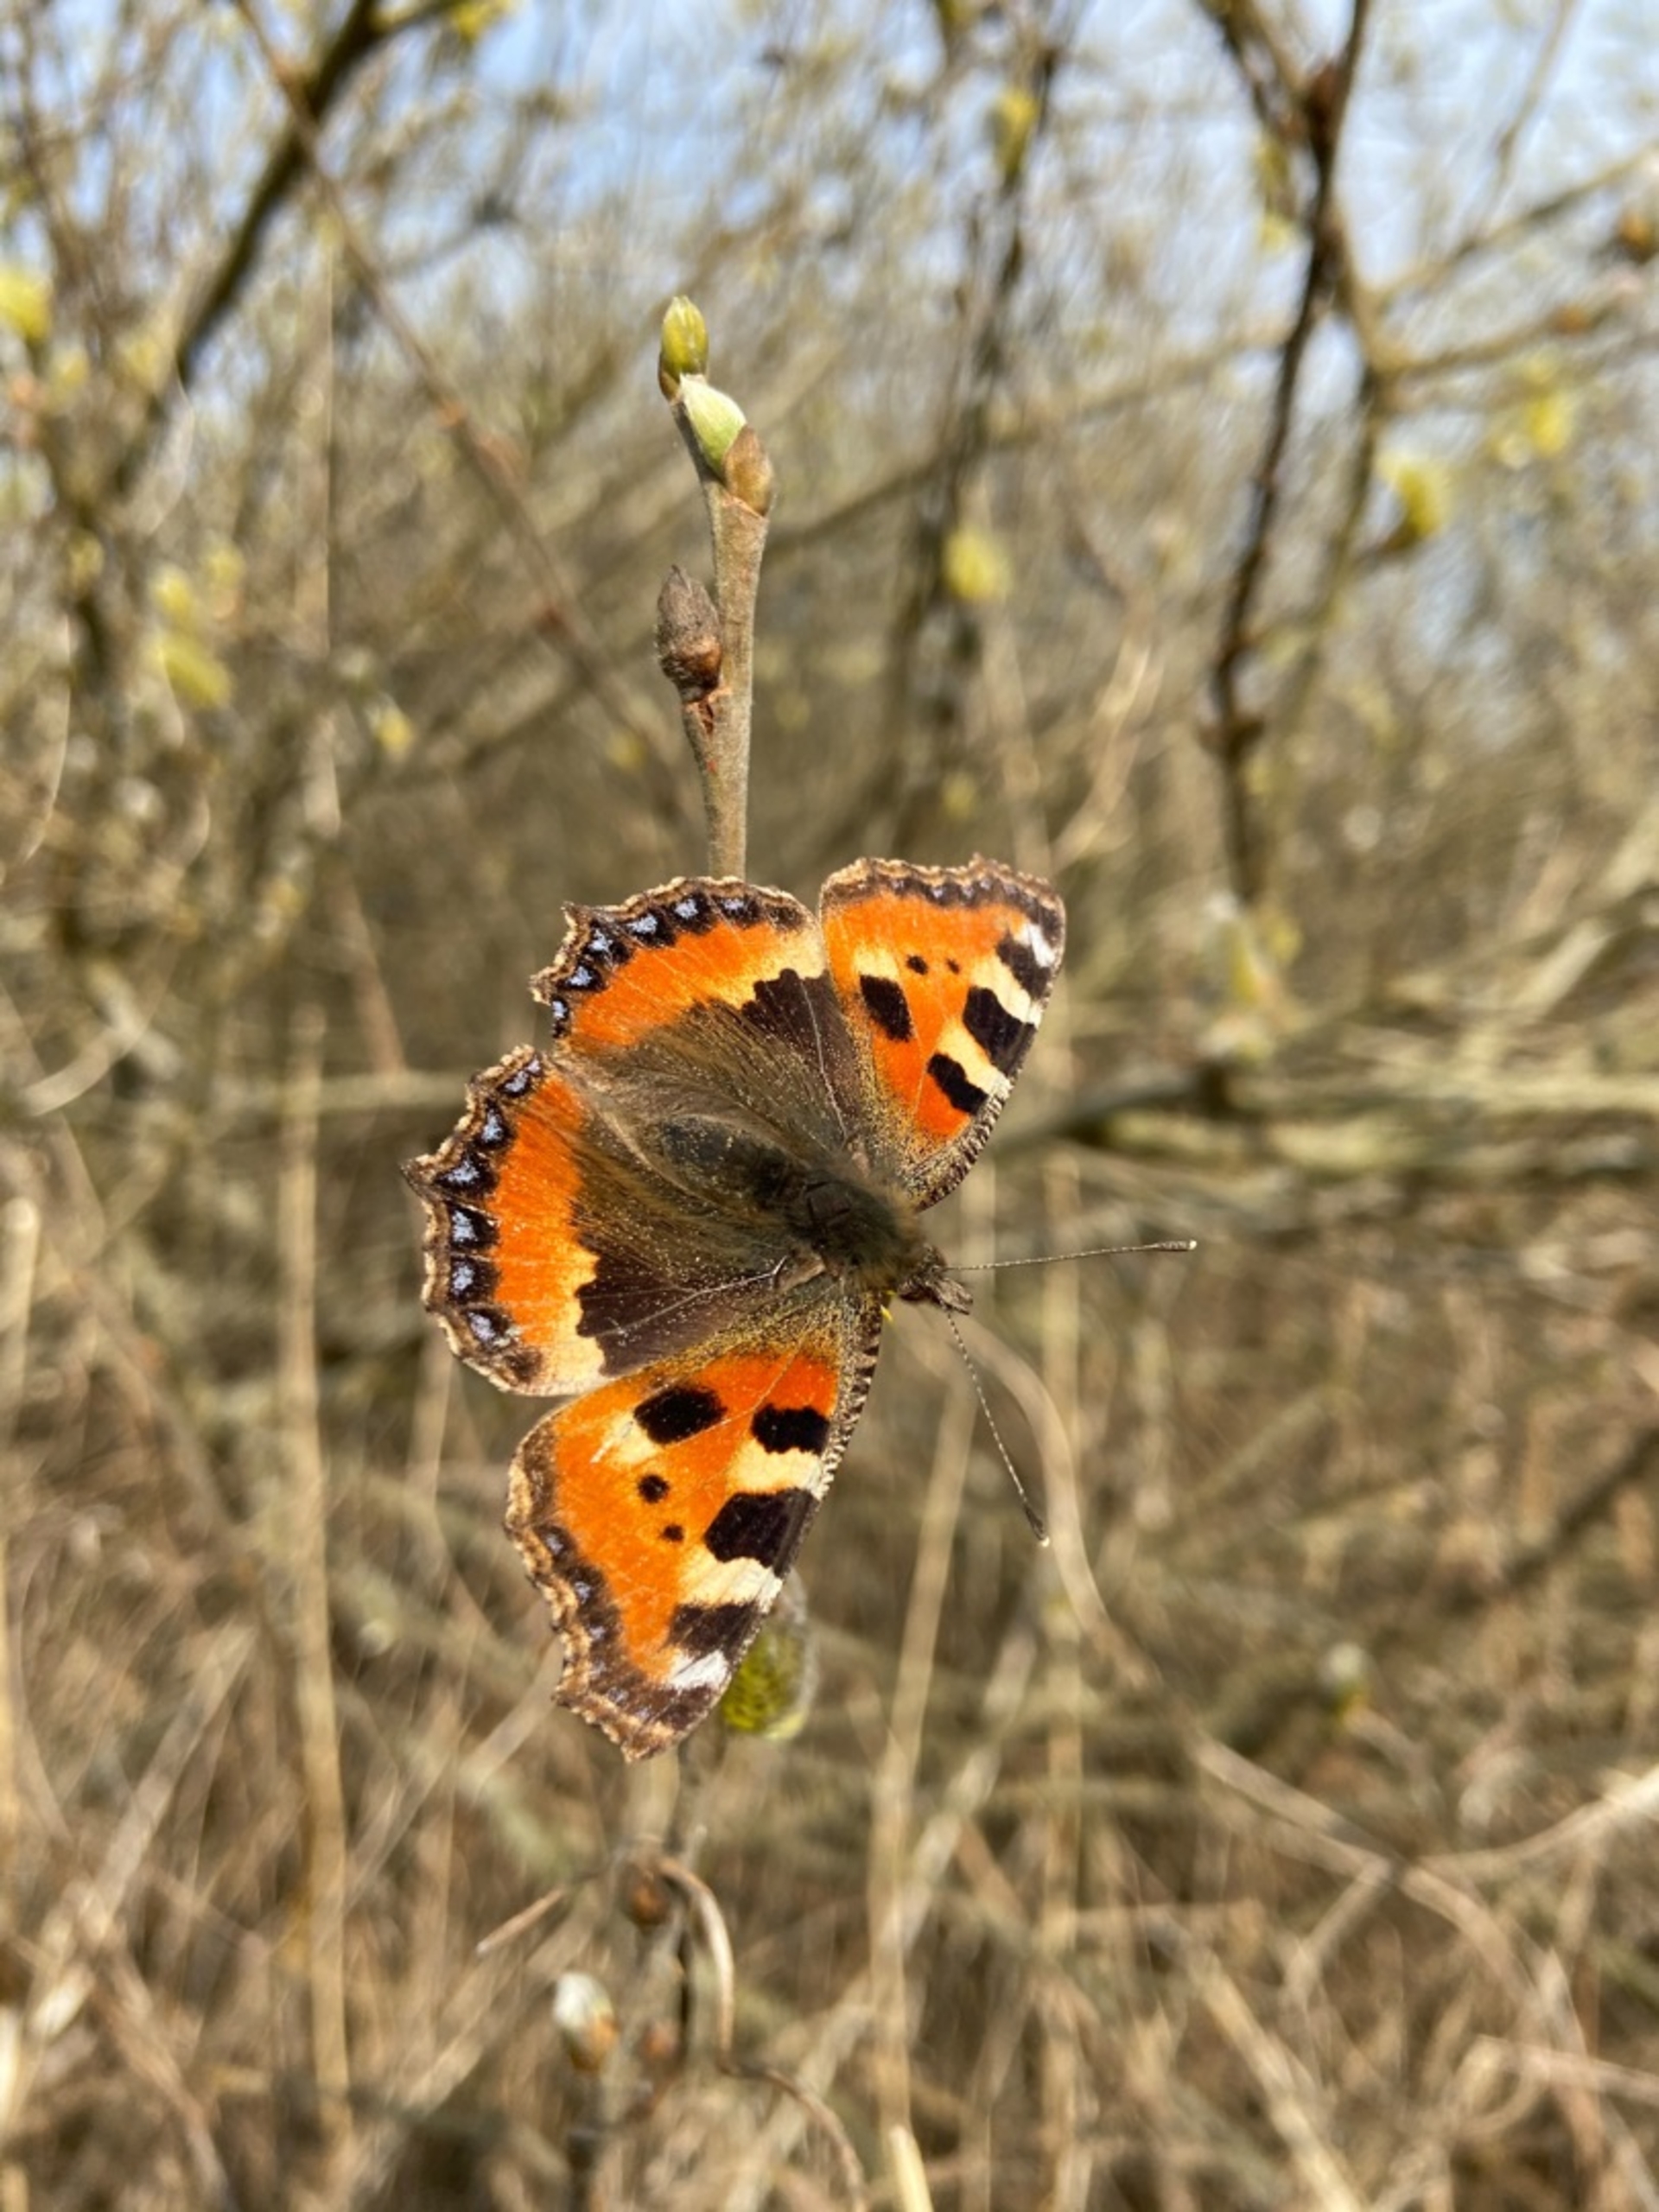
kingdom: Animalia
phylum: Arthropoda
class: Insecta
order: Lepidoptera
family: Nymphalidae
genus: Aglais
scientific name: Aglais urticae
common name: Nældens takvinge
